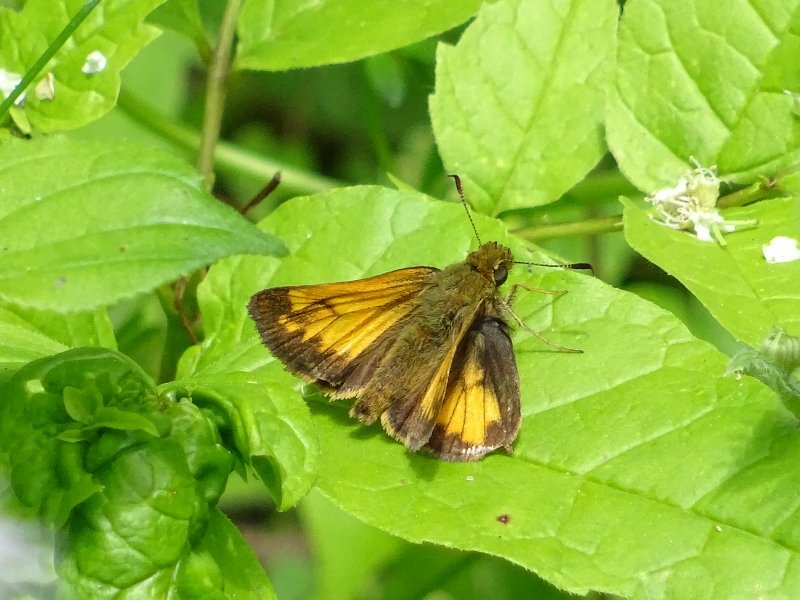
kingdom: Animalia
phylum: Arthropoda
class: Insecta
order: Lepidoptera
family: Hesperiidae
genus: Lon
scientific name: Lon hobomok
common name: Hobomok Skipper
